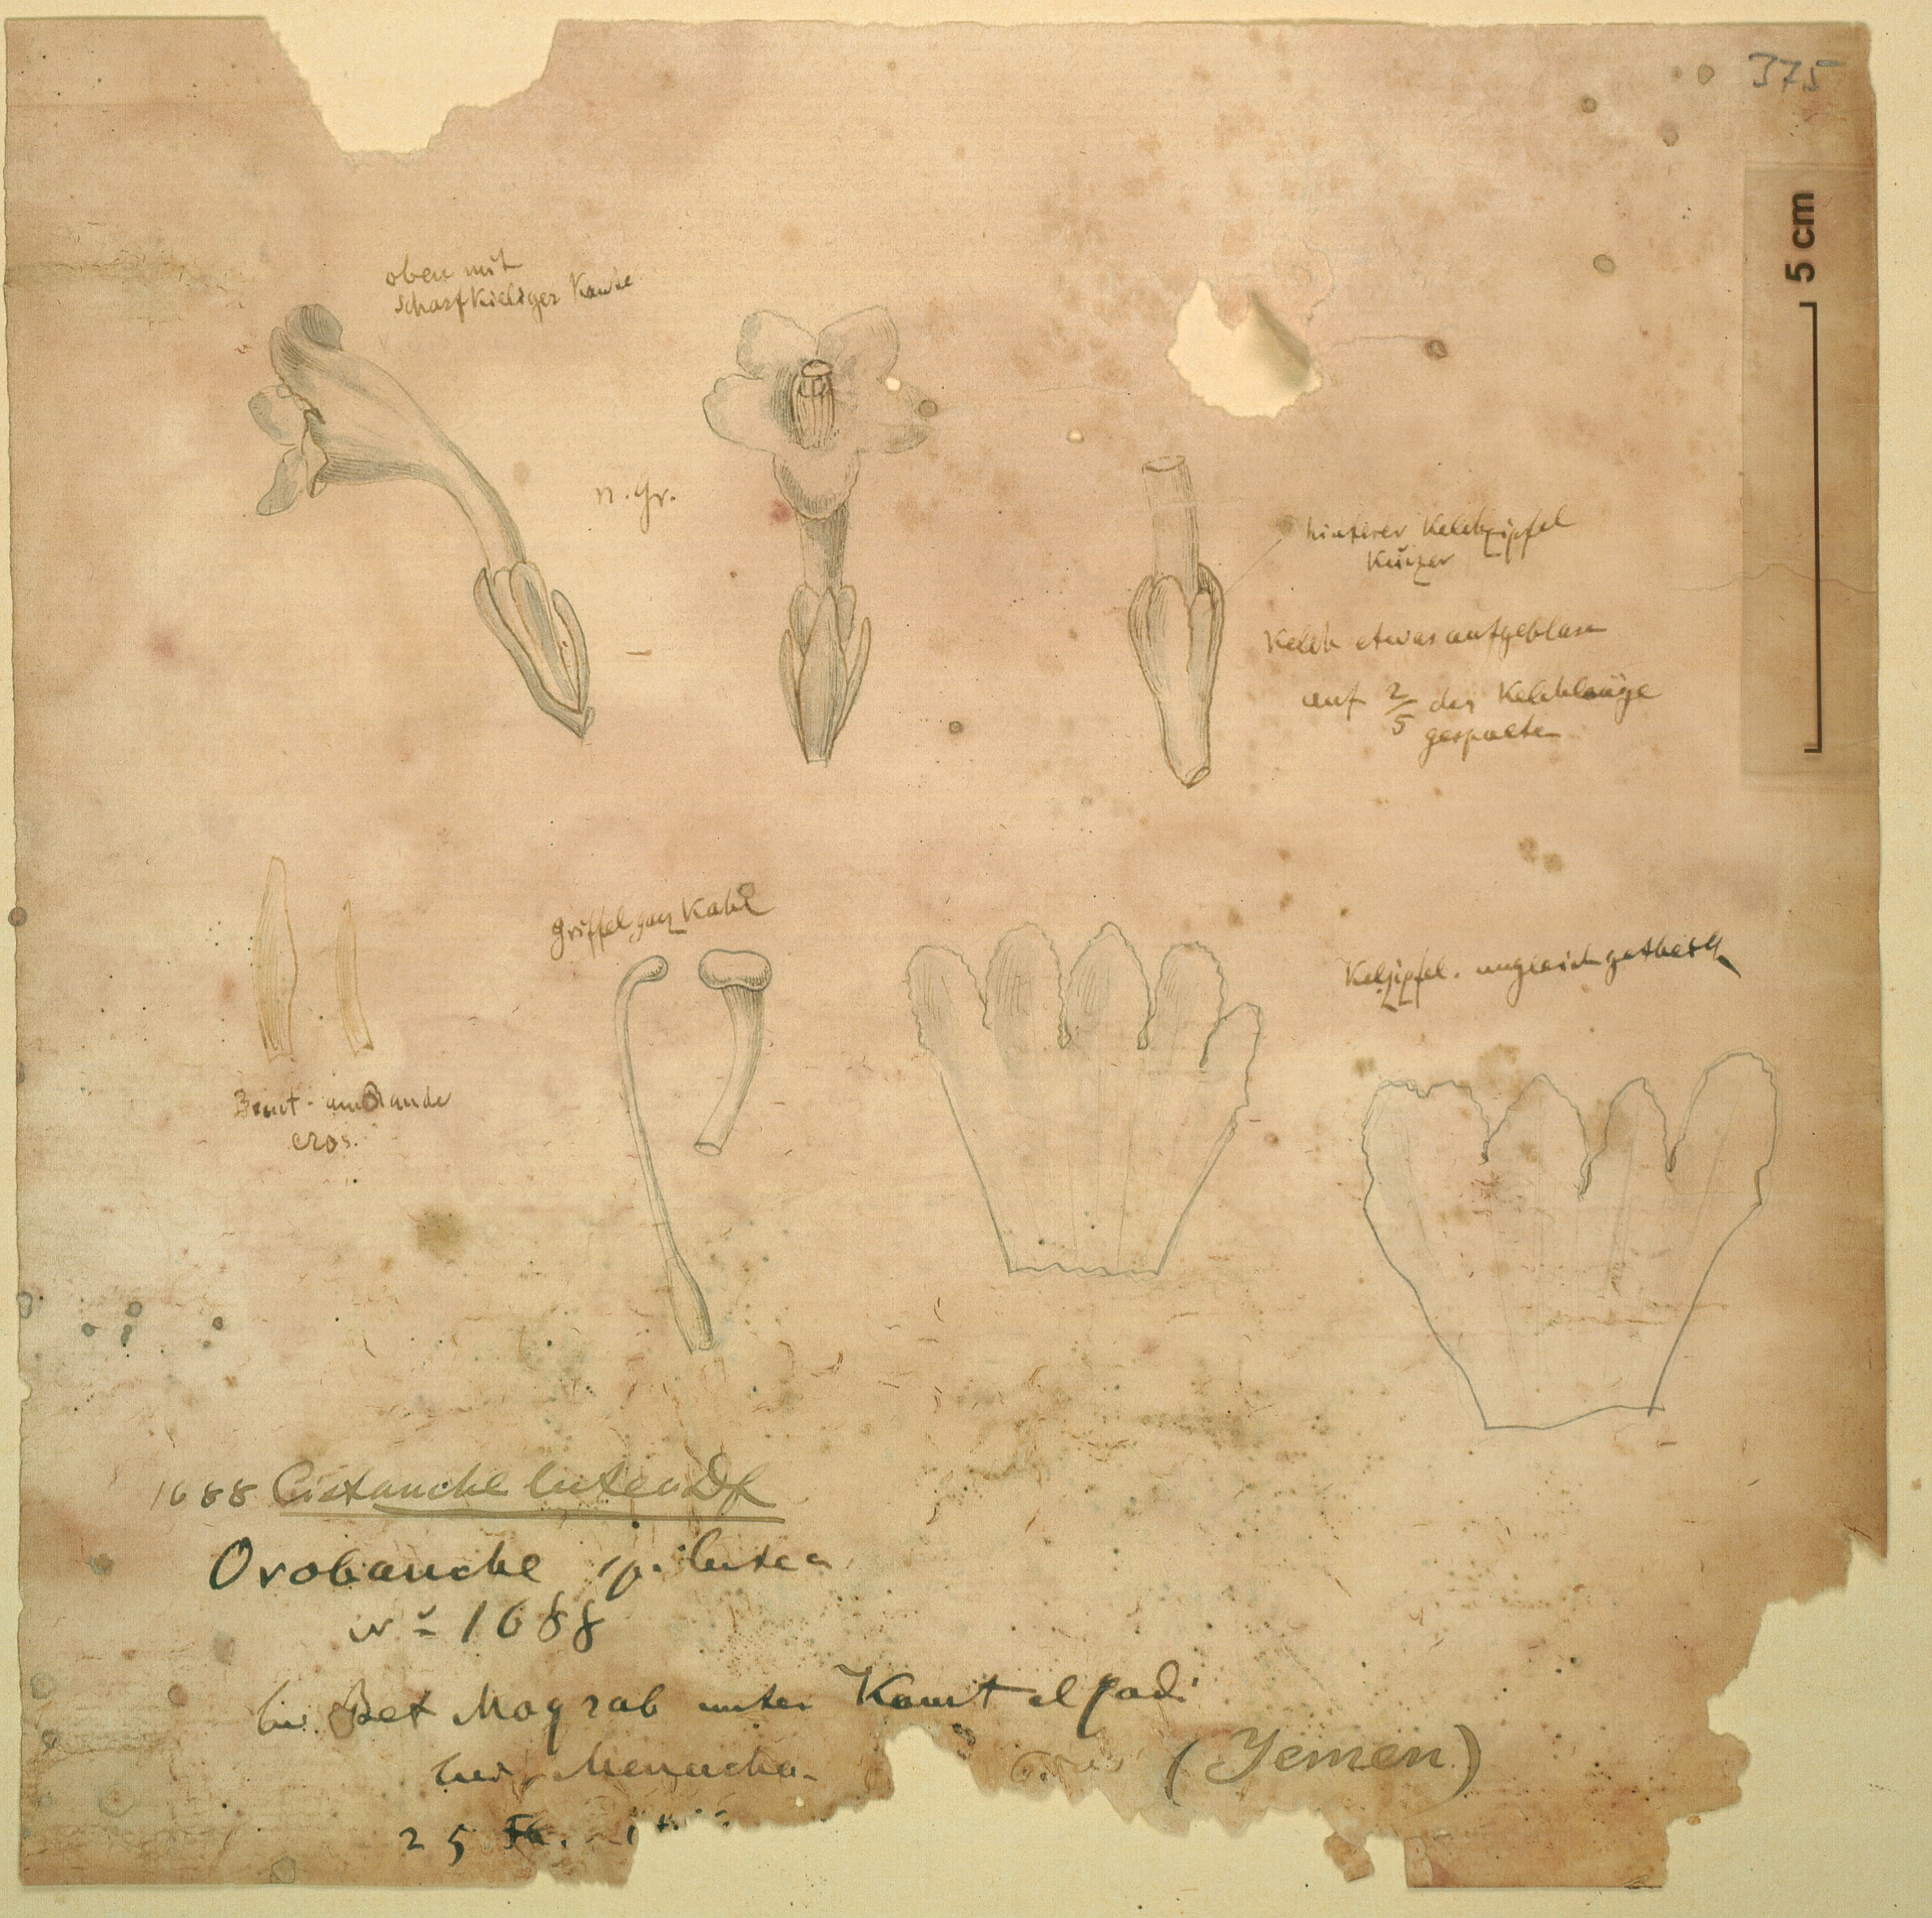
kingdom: Plantae
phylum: Tracheophyta
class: Magnoliopsida
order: Lamiales
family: Orobanchaceae
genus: Cistanche
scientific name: Cistanche phelypaea
